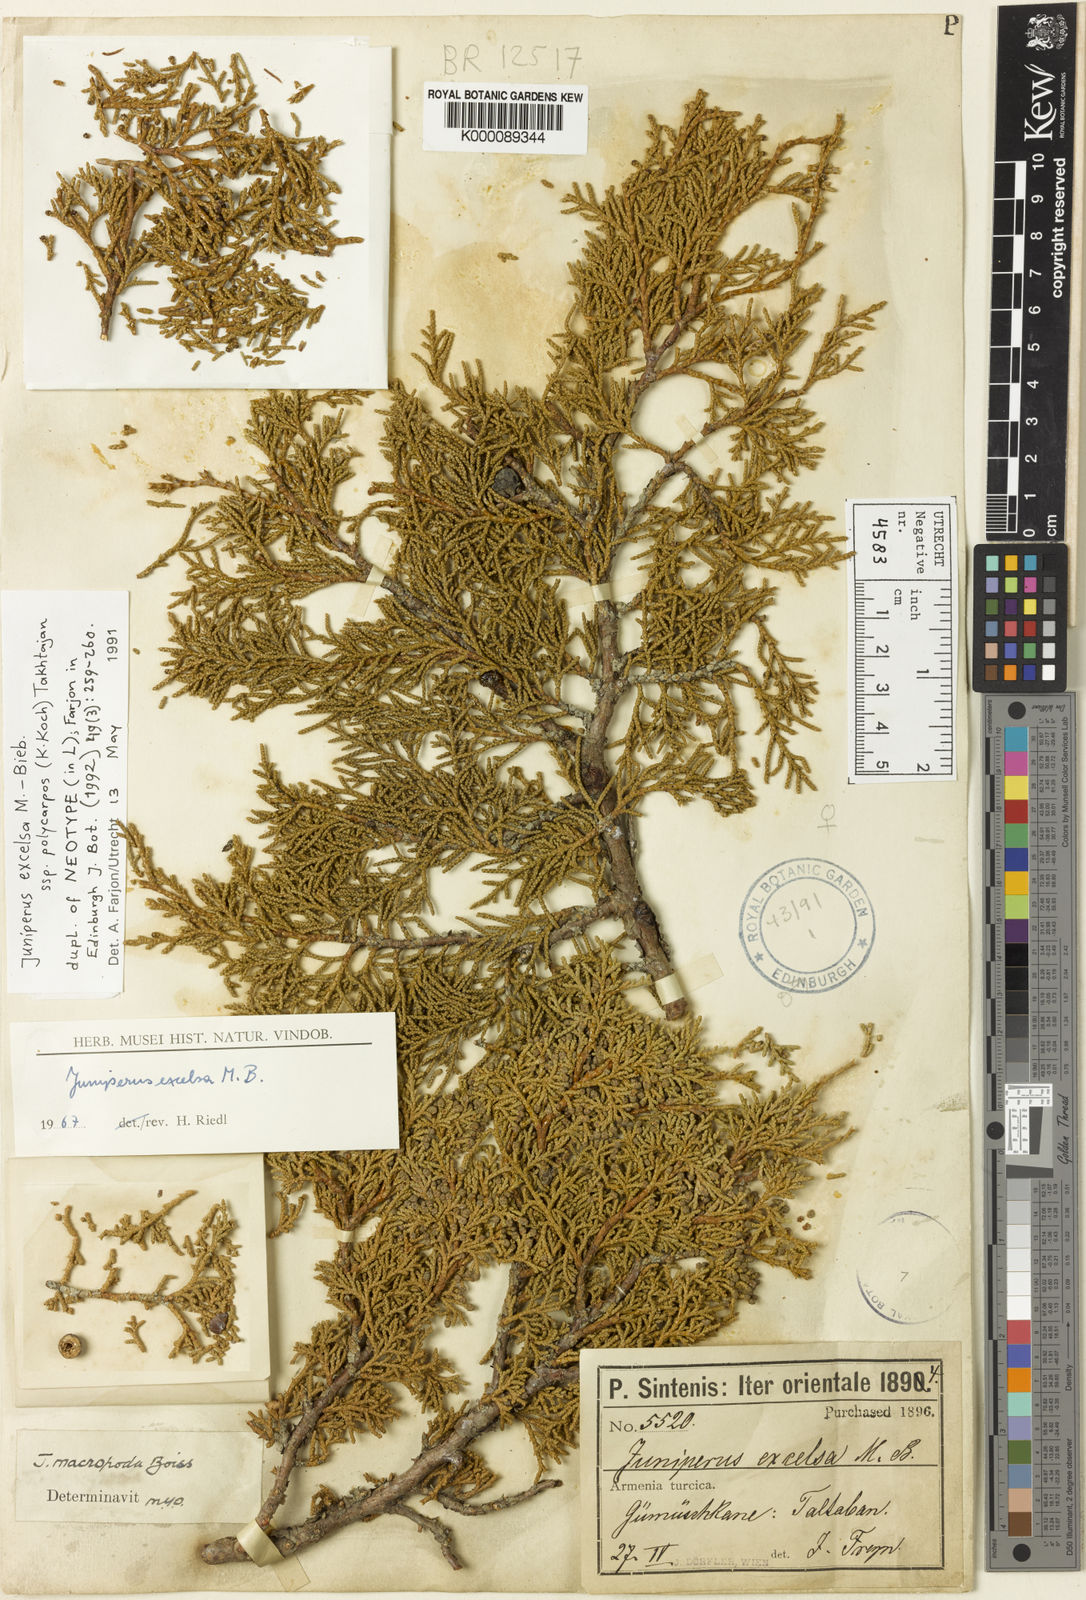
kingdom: Plantae
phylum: Tracheophyta
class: Pinopsida
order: Pinales
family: Cupressaceae
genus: Juniperus
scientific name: Juniperus excelsa
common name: Crimean juniper
